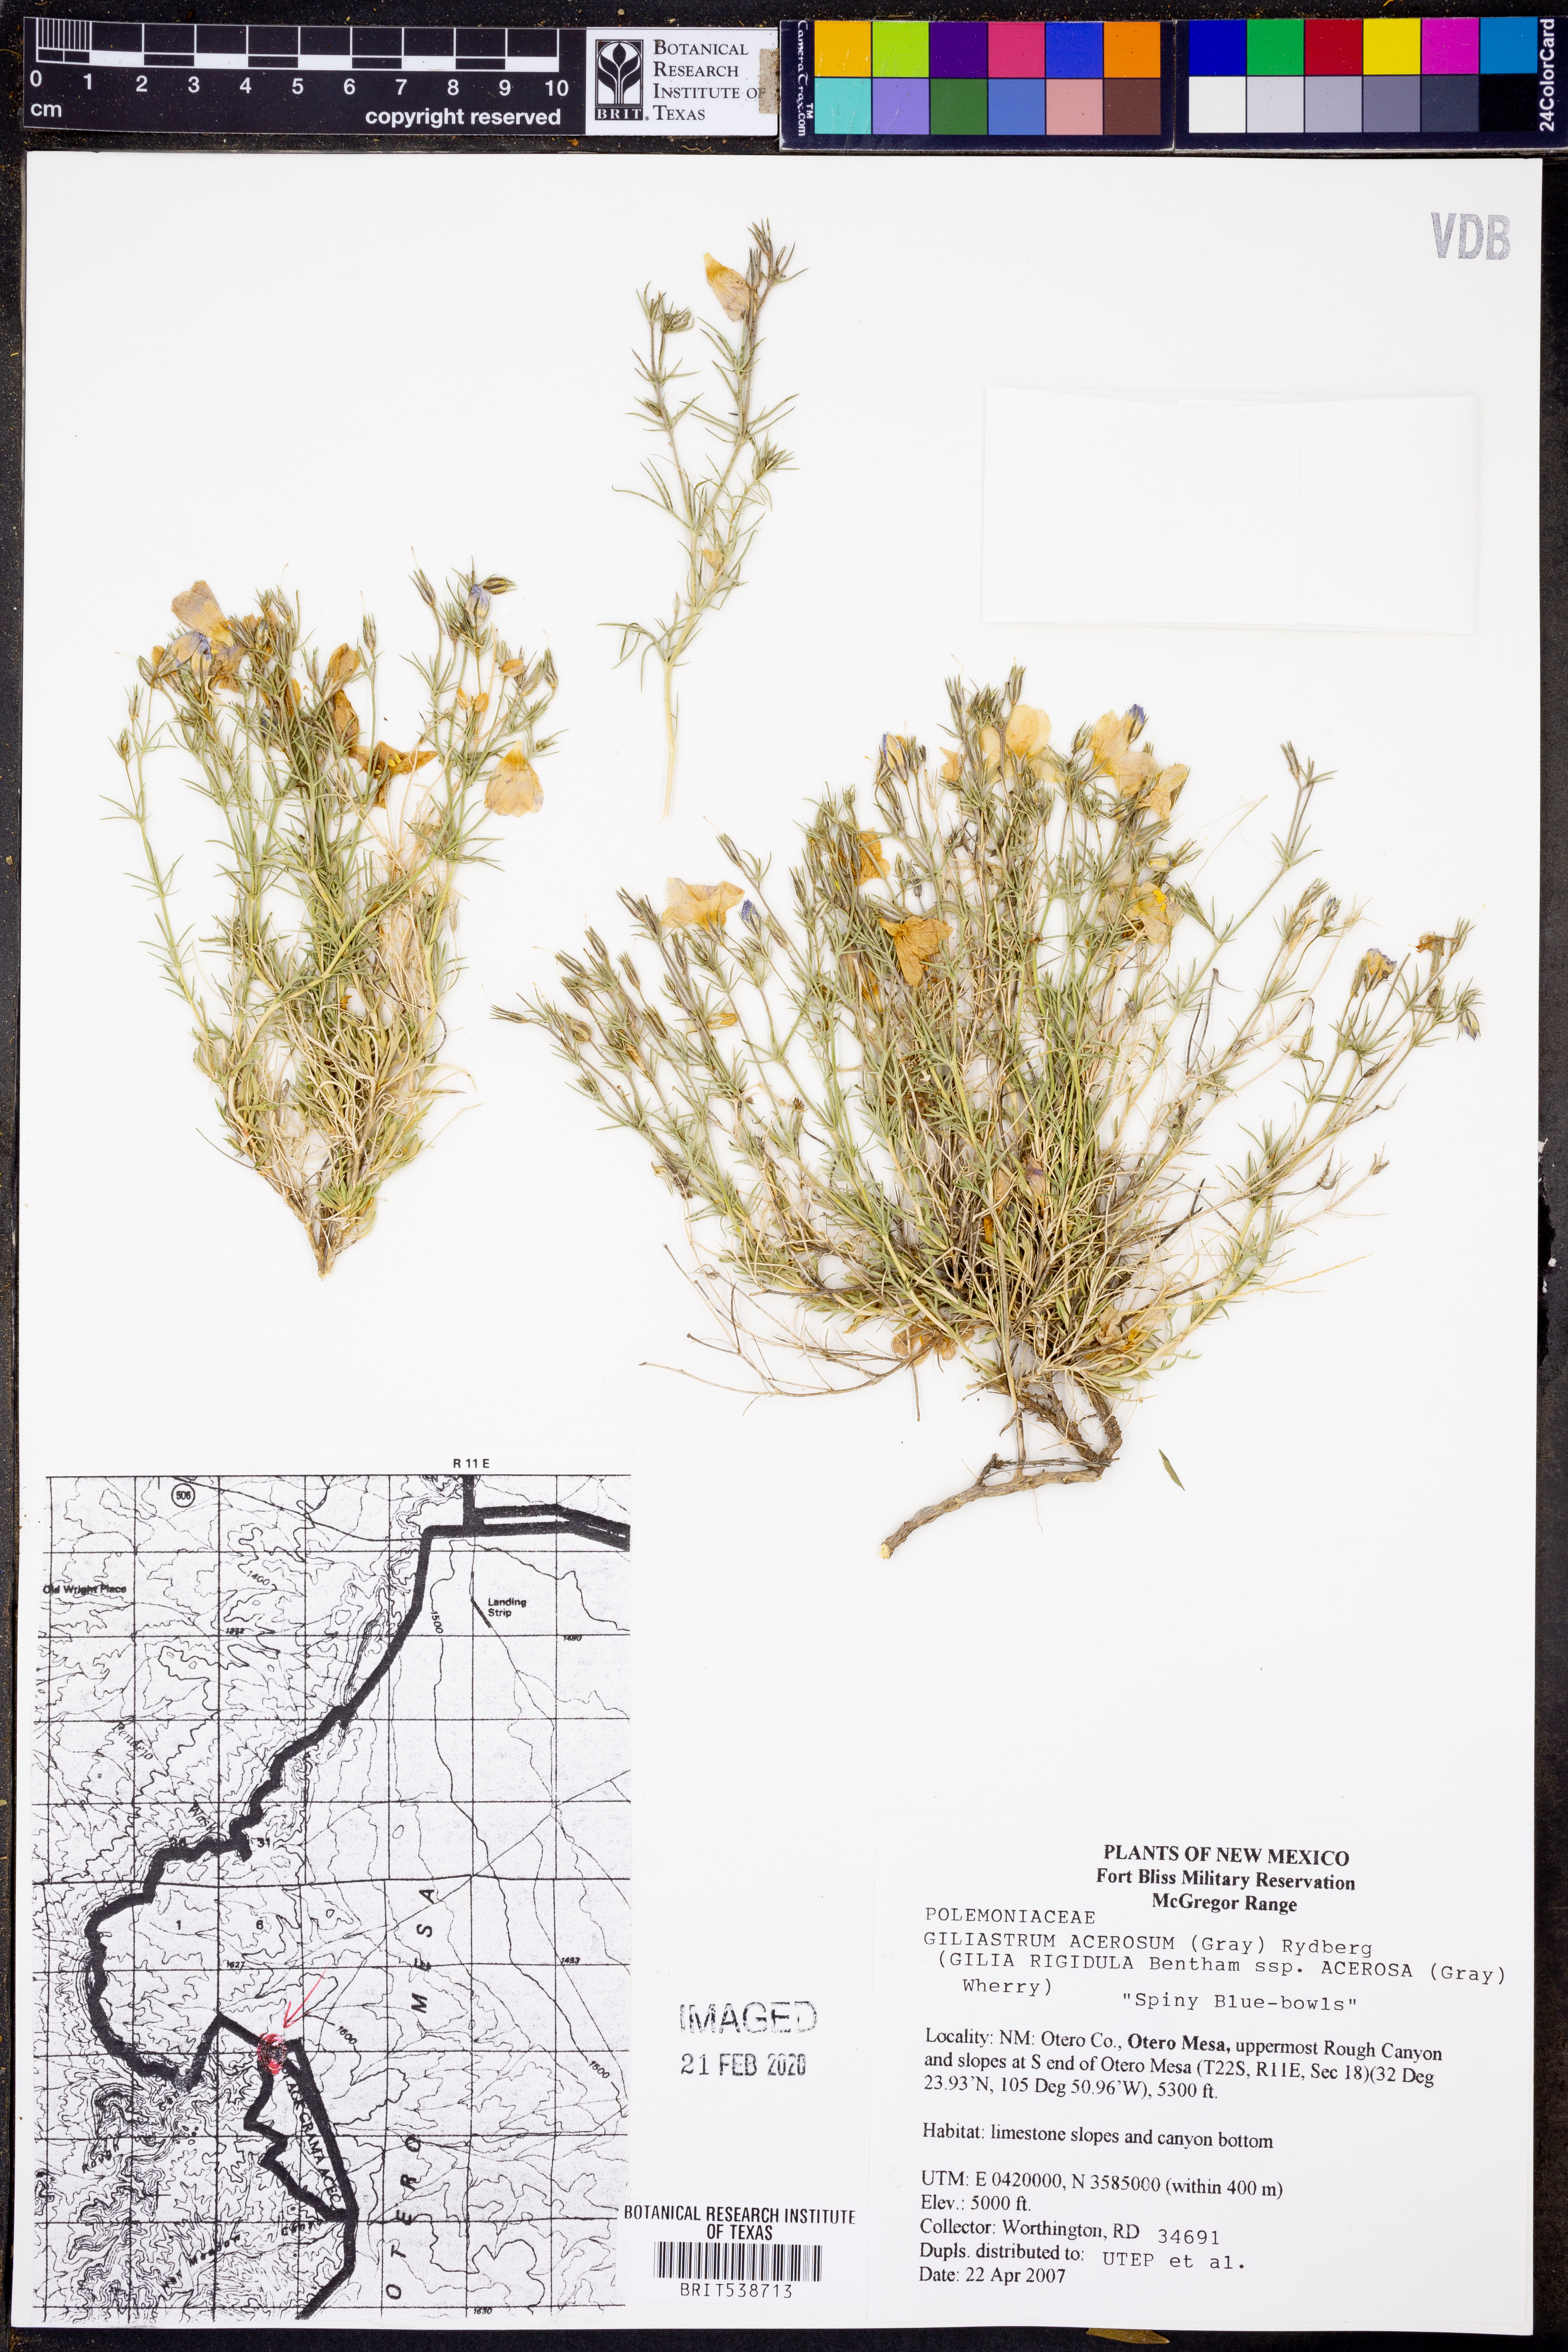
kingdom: Plantae
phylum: Tracheophyta
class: Magnoliopsida
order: Ericales
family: Polemoniaceae
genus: Giliastrum
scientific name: Giliastrum acerosum
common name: Bluebowls
